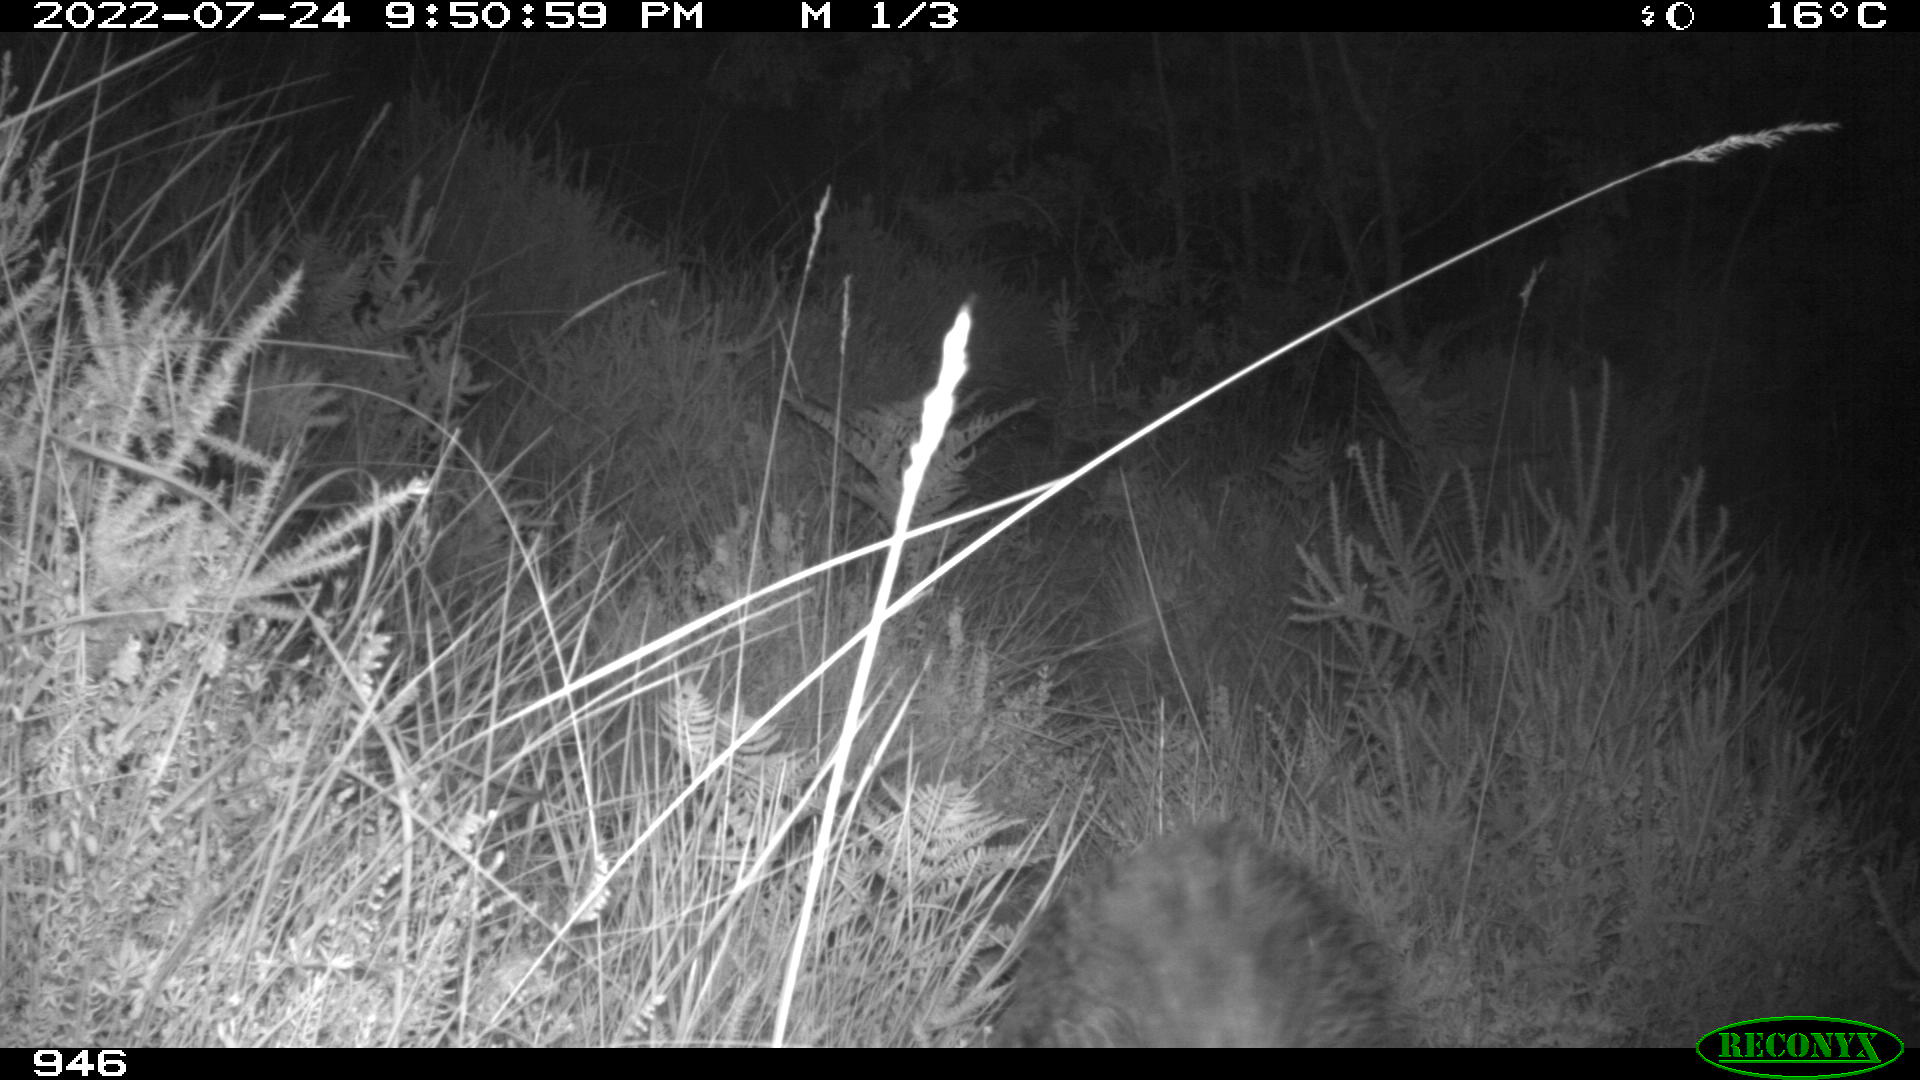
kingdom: Animalia
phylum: Chordata
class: Mammalia
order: Artiodactyla
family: Suidae
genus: Sus
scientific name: Sus scrofa
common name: Wild boar
